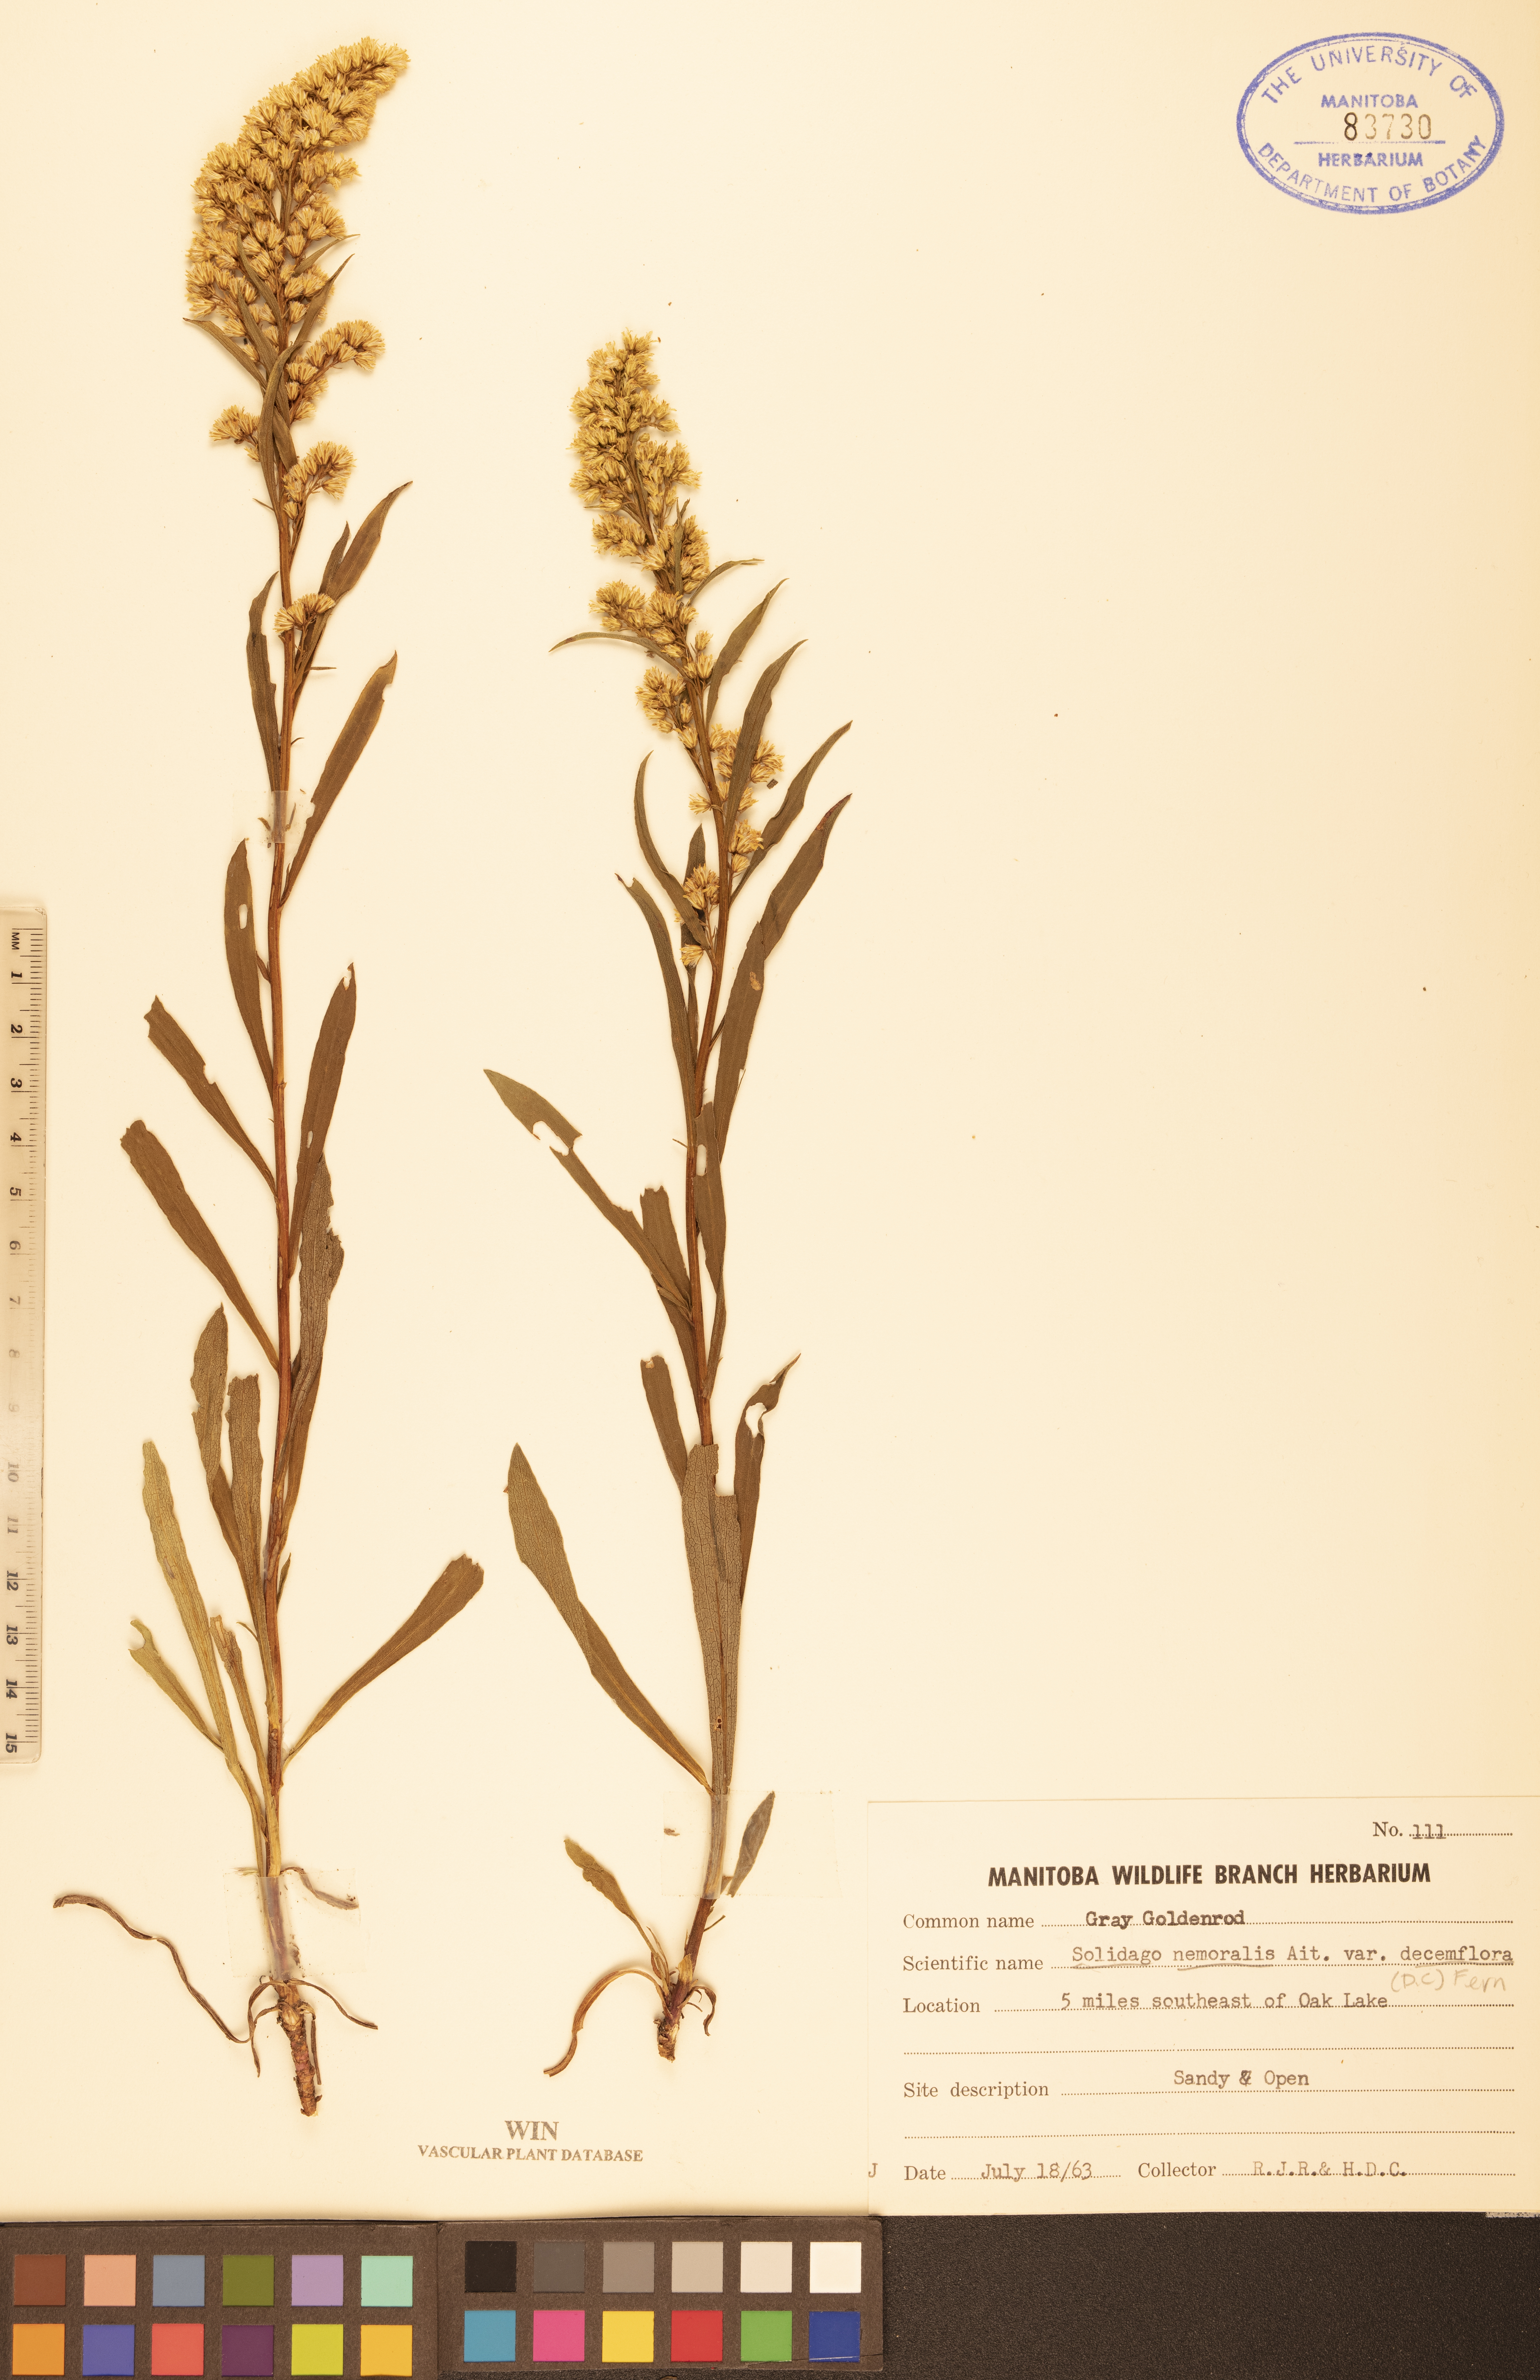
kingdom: Plantae
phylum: Tracheophyta
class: Magnoliopsida
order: Asterales
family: Asteraceae
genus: Solidago
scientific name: Solidago decemflora
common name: Prairie grey-stemmed goldenrod
